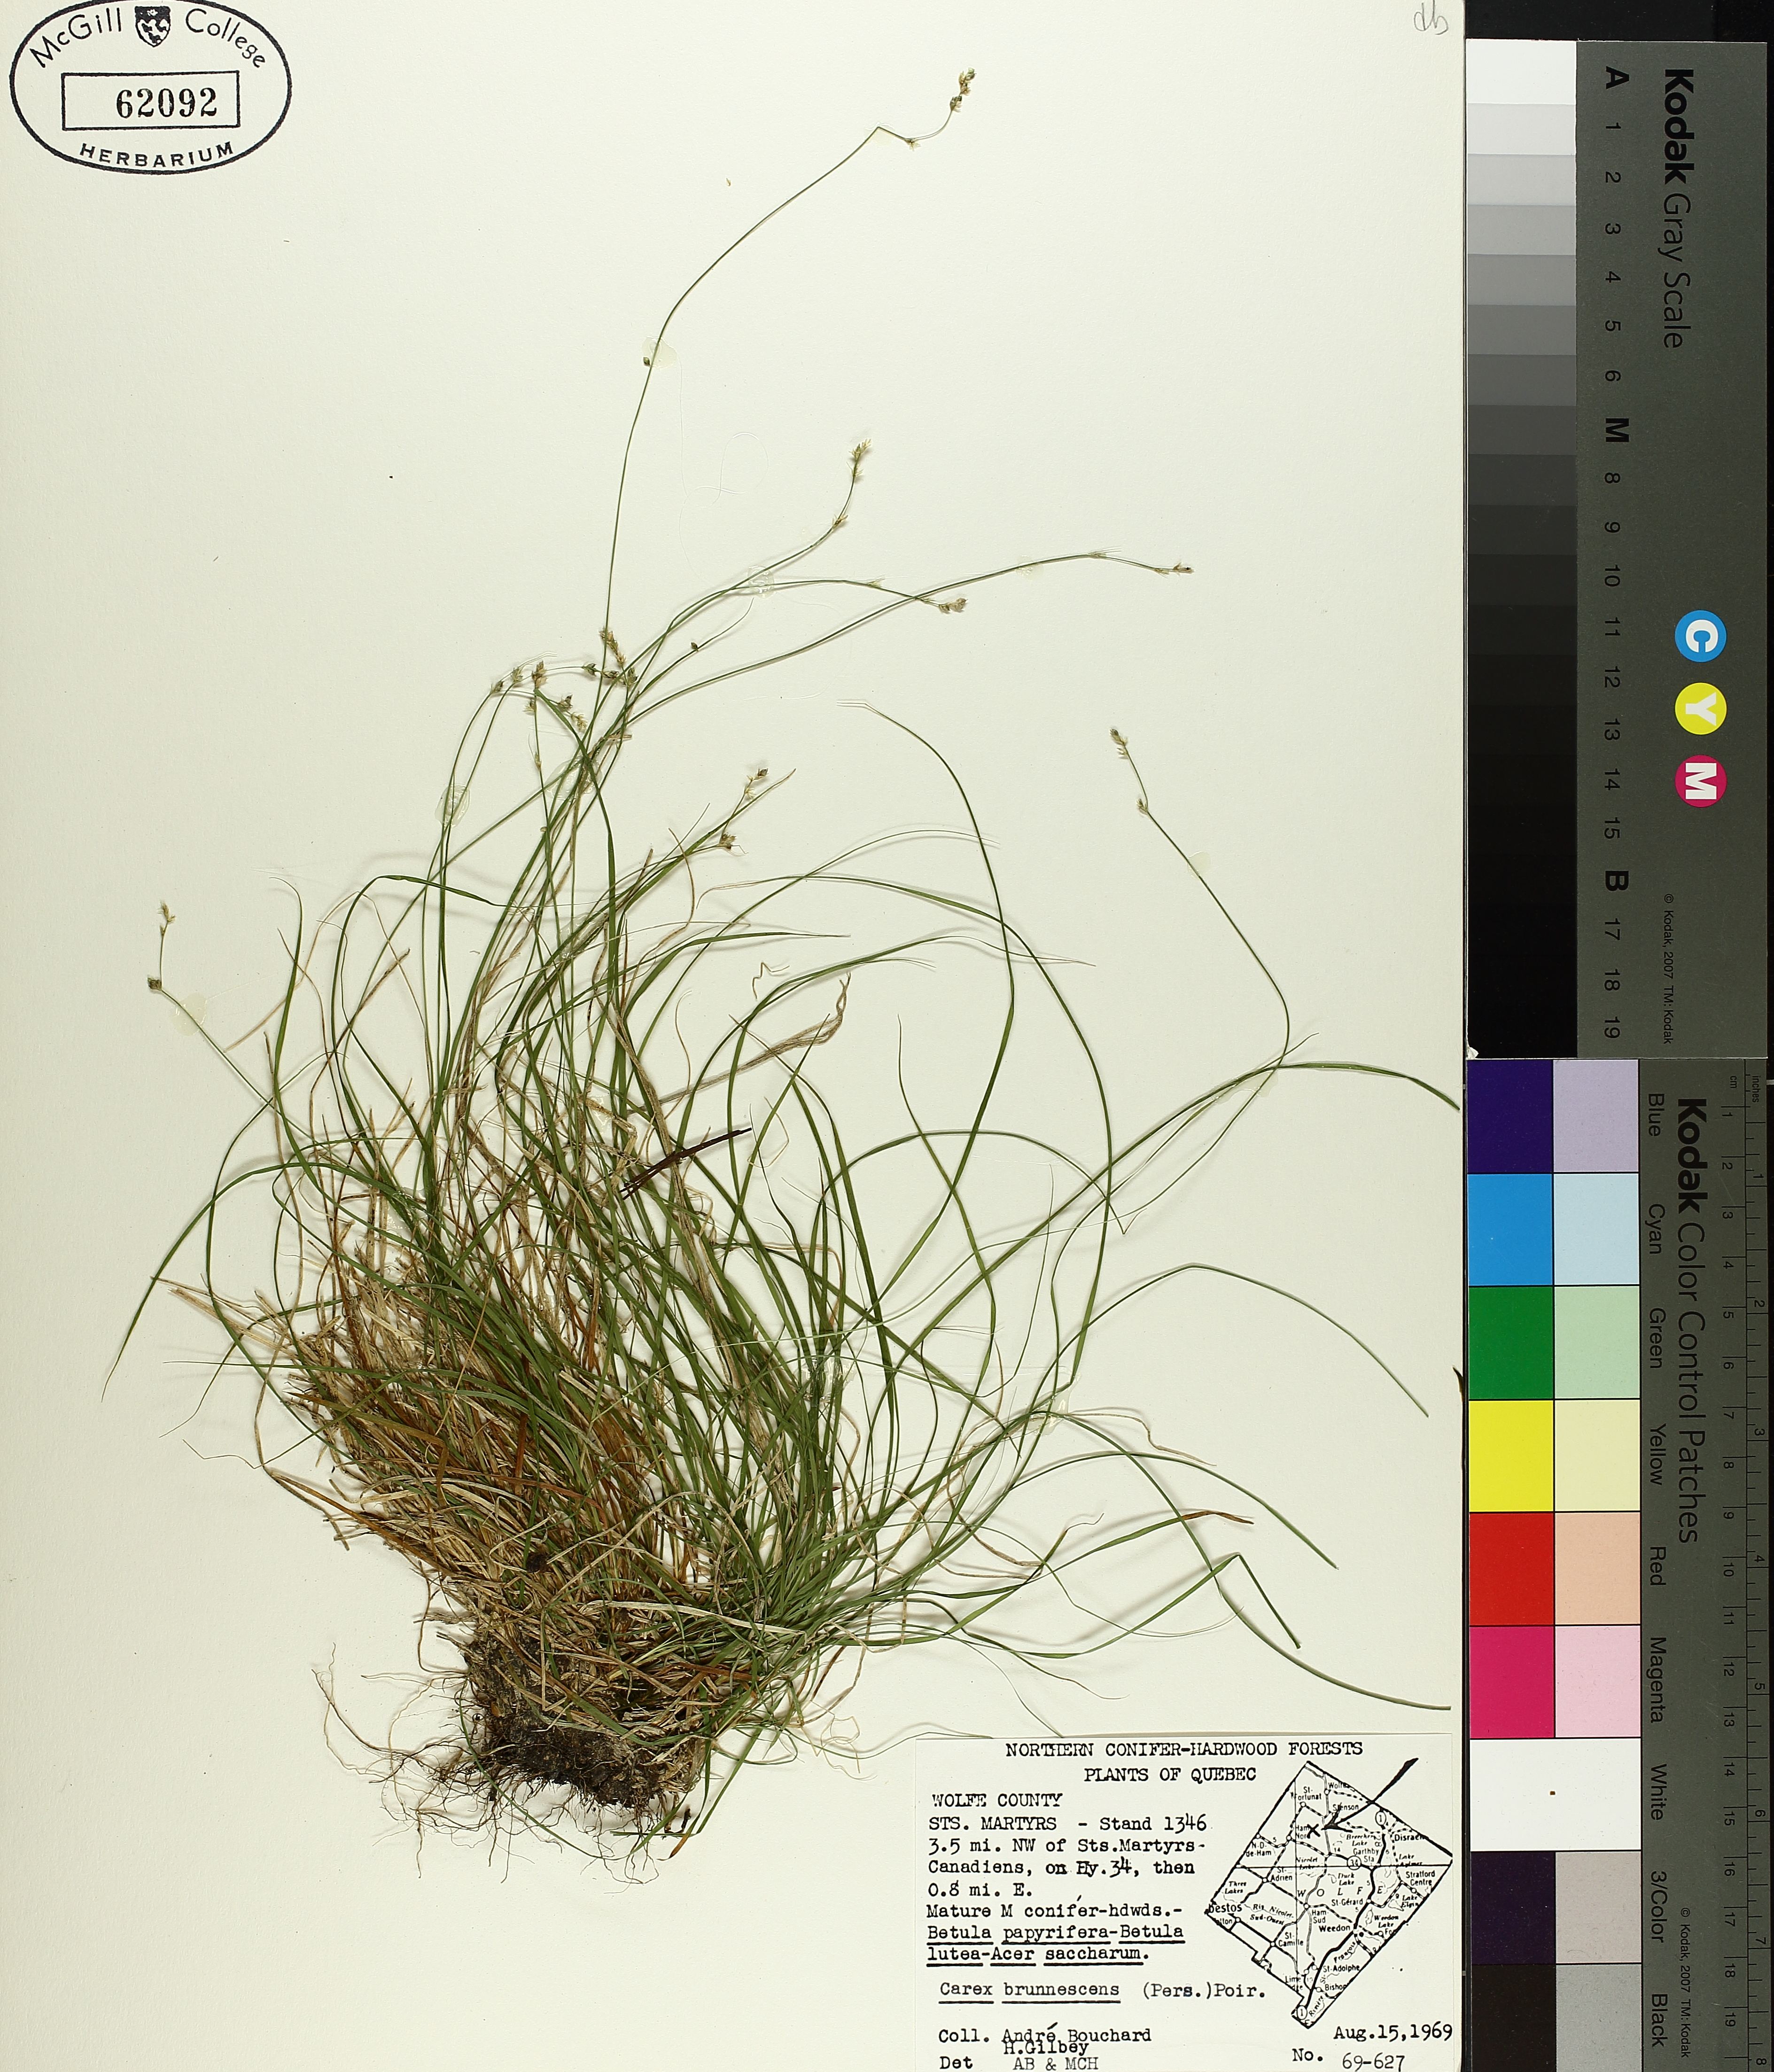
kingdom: Plantae
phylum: Tracheophyta
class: Liliopsida
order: Poales
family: Cyperaceae
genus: Carex
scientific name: Carex brunnescens
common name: Brown sedge
